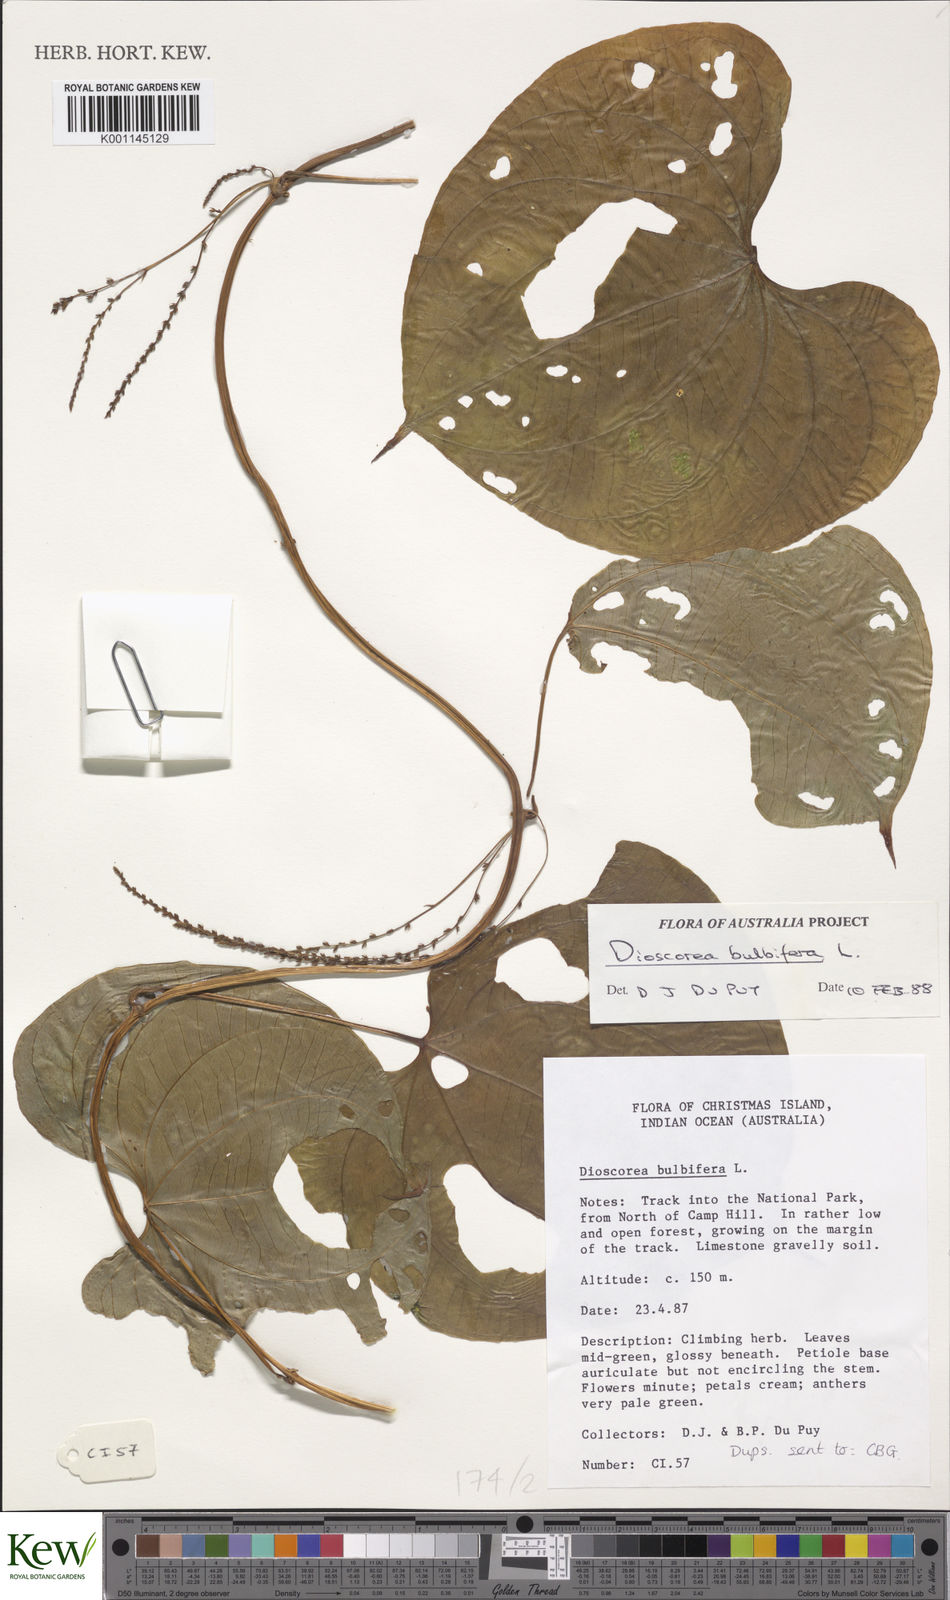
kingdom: Plantae
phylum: Tracheophyta
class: Liliopsida
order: Dioscoreales
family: Dioscoreaceae
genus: Dioscorea
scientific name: Dioscorea bulbifera
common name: Air yam
